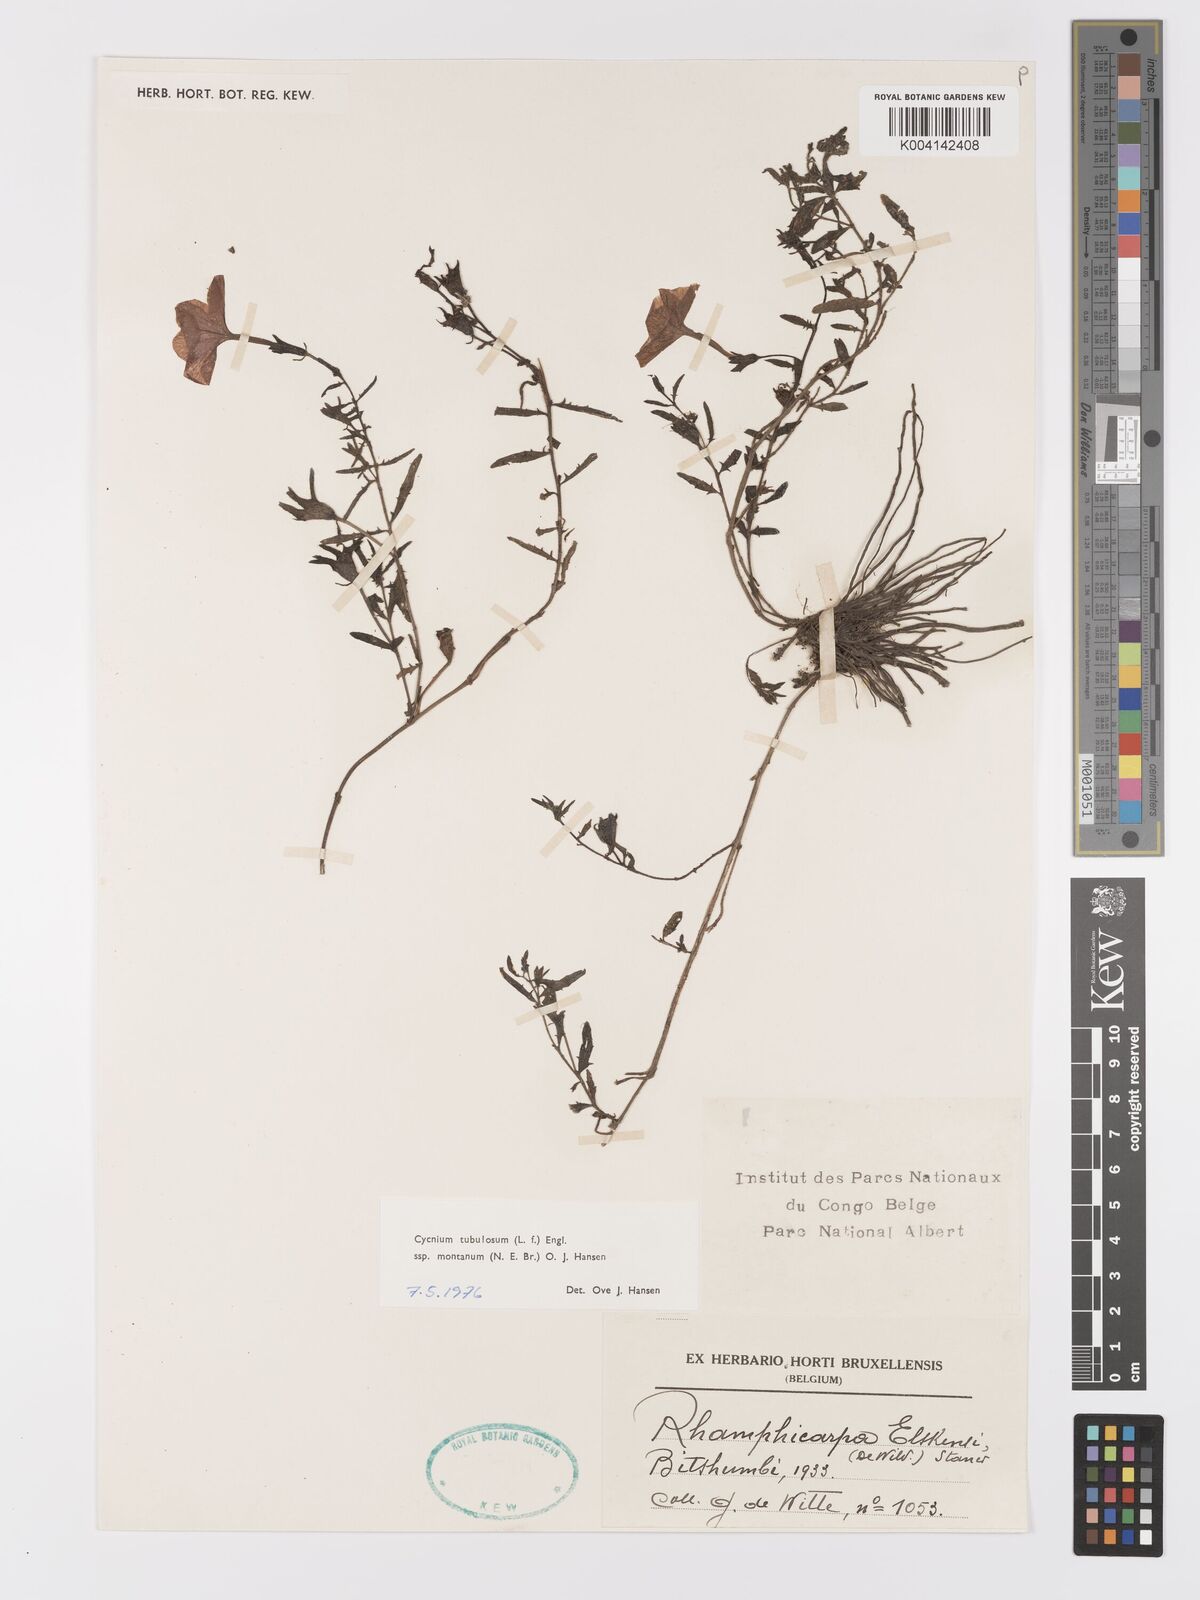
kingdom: Plantae
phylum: Tracheophyta
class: Magnoliopsida
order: Lamiales
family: Orobanchaceae
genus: Cycnium
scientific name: Cycnium tubulosum
